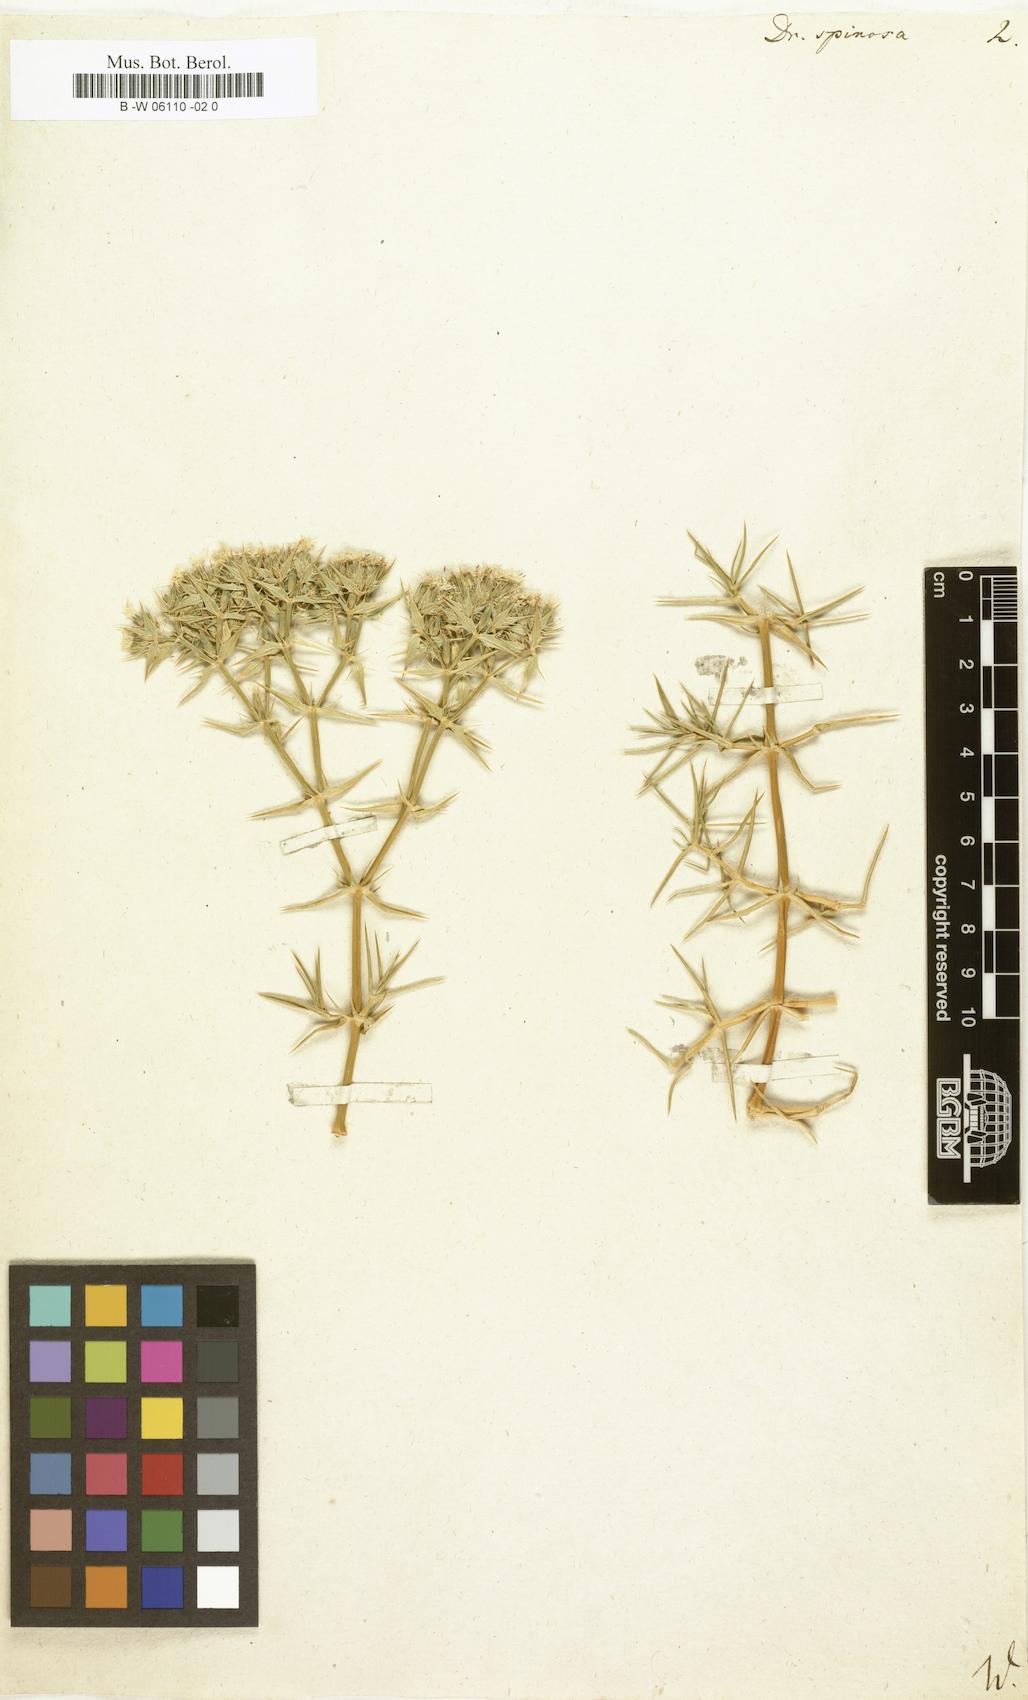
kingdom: Plantae
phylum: Tracheophyta
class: Magnoliopsida
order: Caryophyllales
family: Caryophyllaceae
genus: Drypis
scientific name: Drypis spinosa
